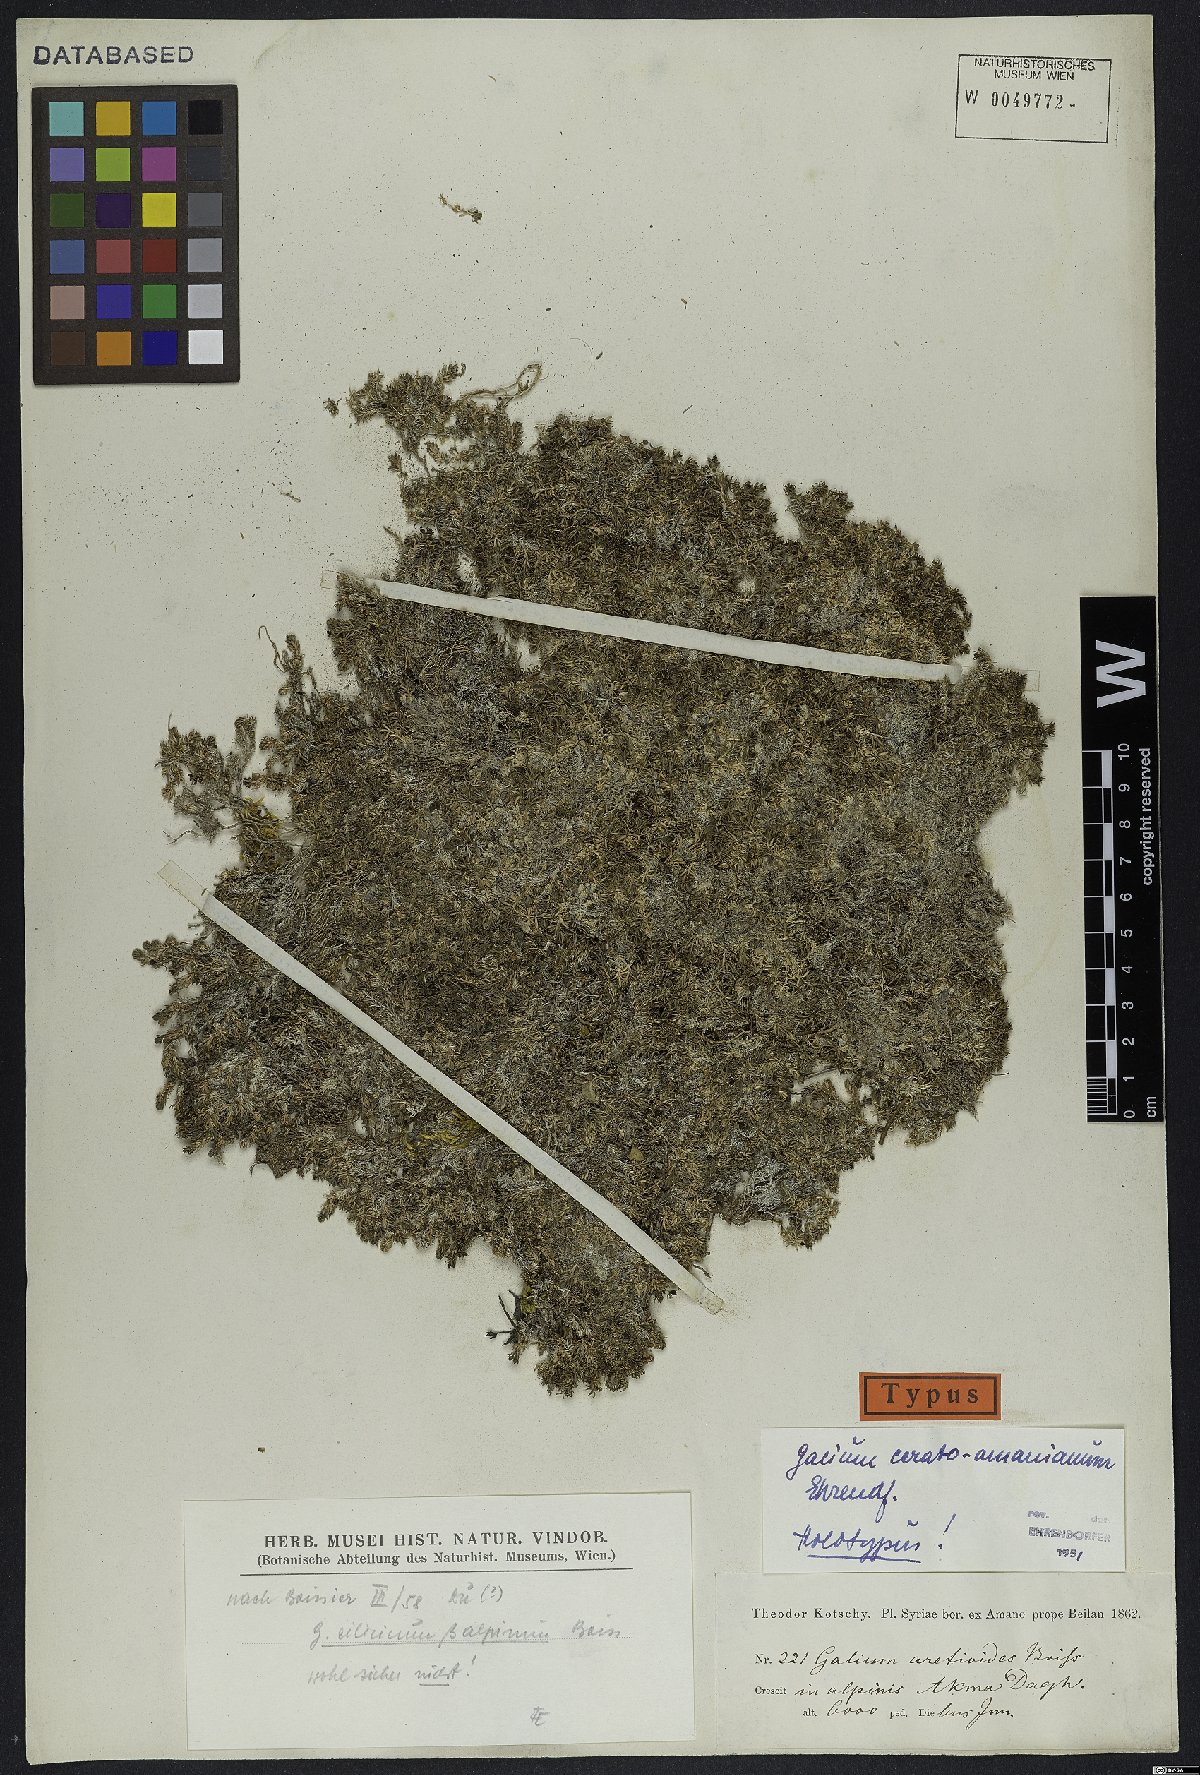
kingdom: Plantae
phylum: Tracheophyta
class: Magnoliopsida
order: Gentianales
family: Rubiaceae
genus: Galium
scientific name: Galium ceratoamanianum
